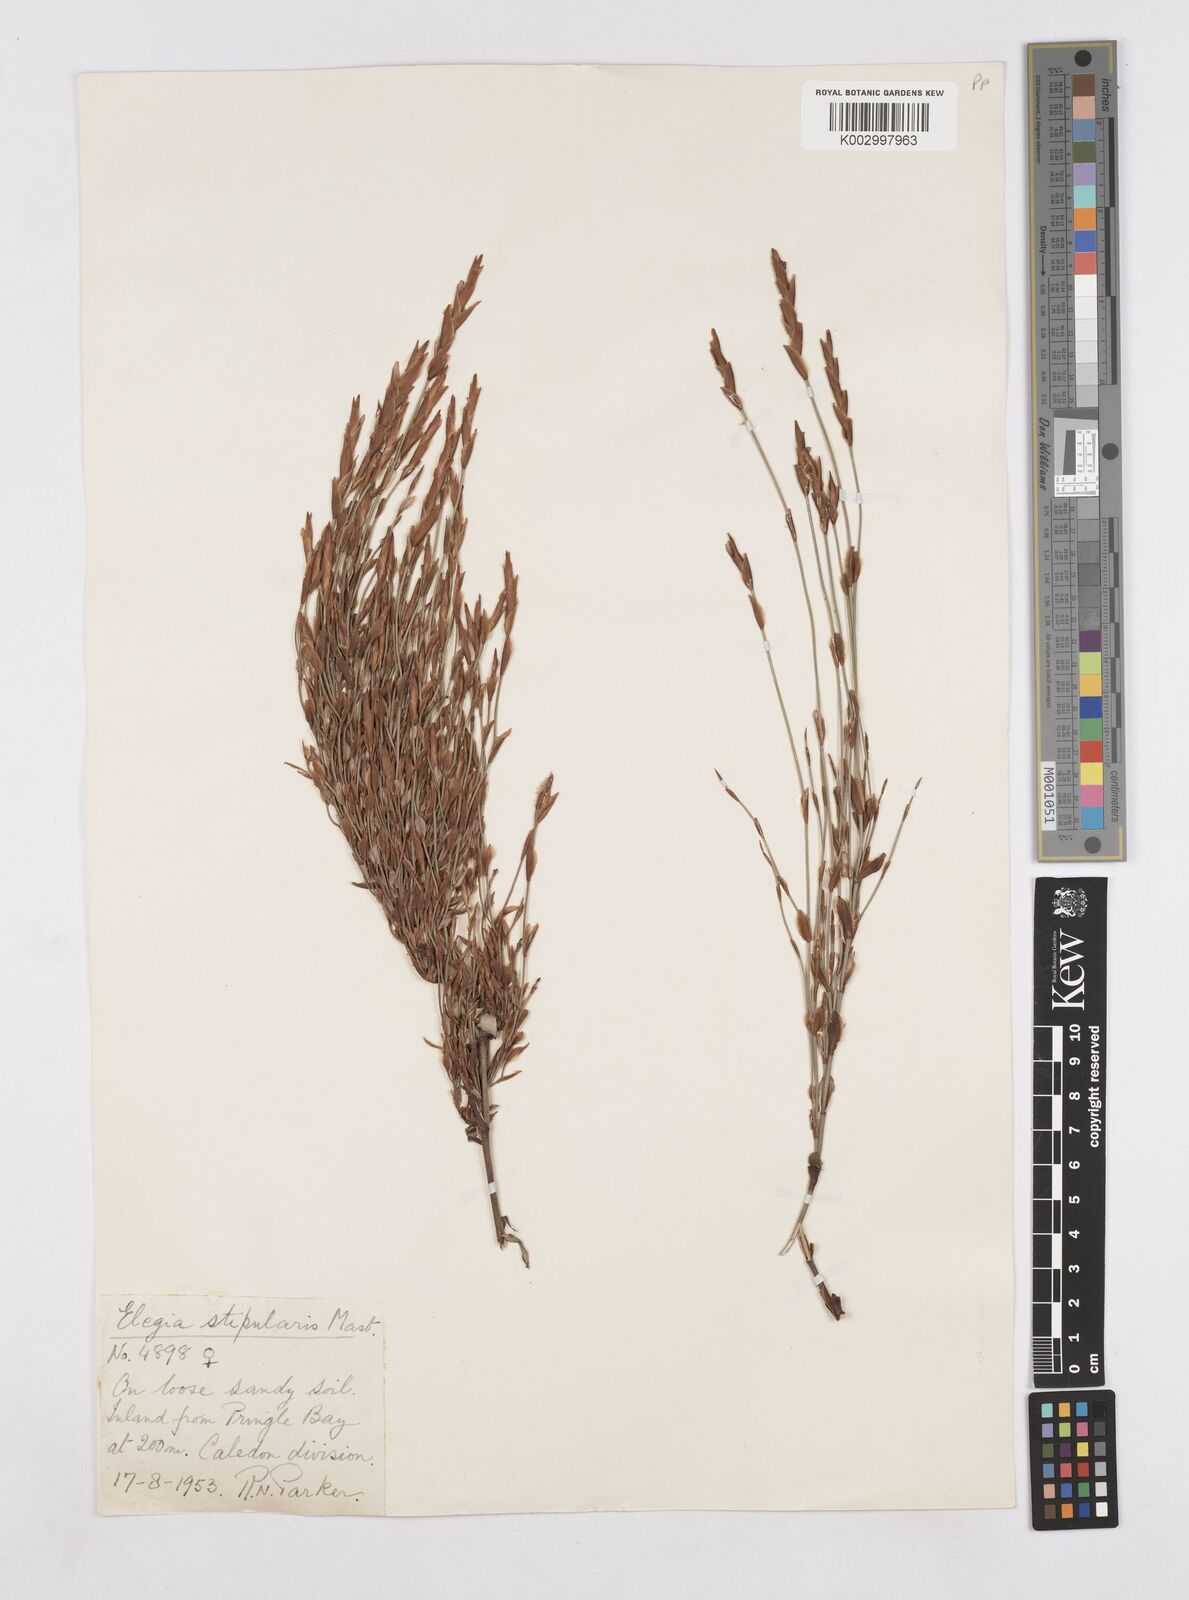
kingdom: Plantae
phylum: Tracheophyta
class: Liliopsida
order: Poales
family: Restionaceae
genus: Elegia
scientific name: Elegia stipularis
